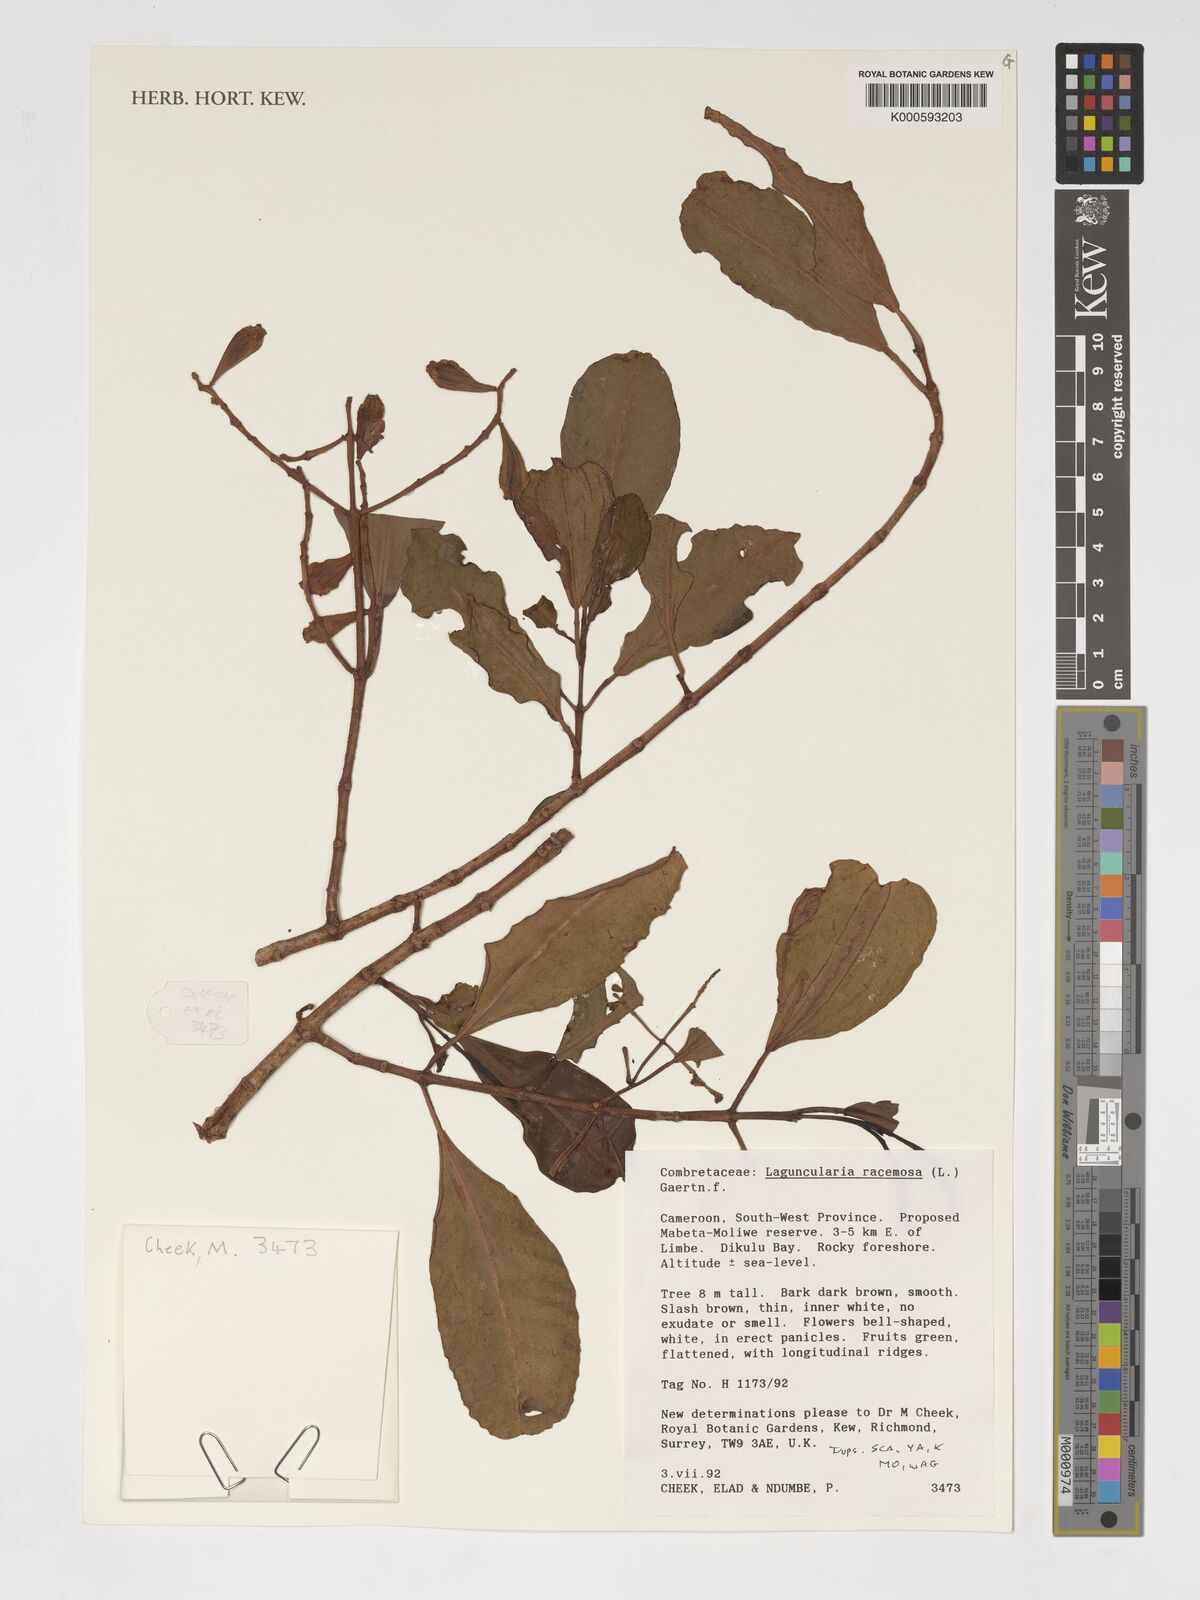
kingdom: Plantae
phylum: Tracheophyta
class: Magnoliopsida
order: Myrtales
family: Combretaceae
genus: Laguncularia
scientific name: Laguncularia racemosa
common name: White mangrove
